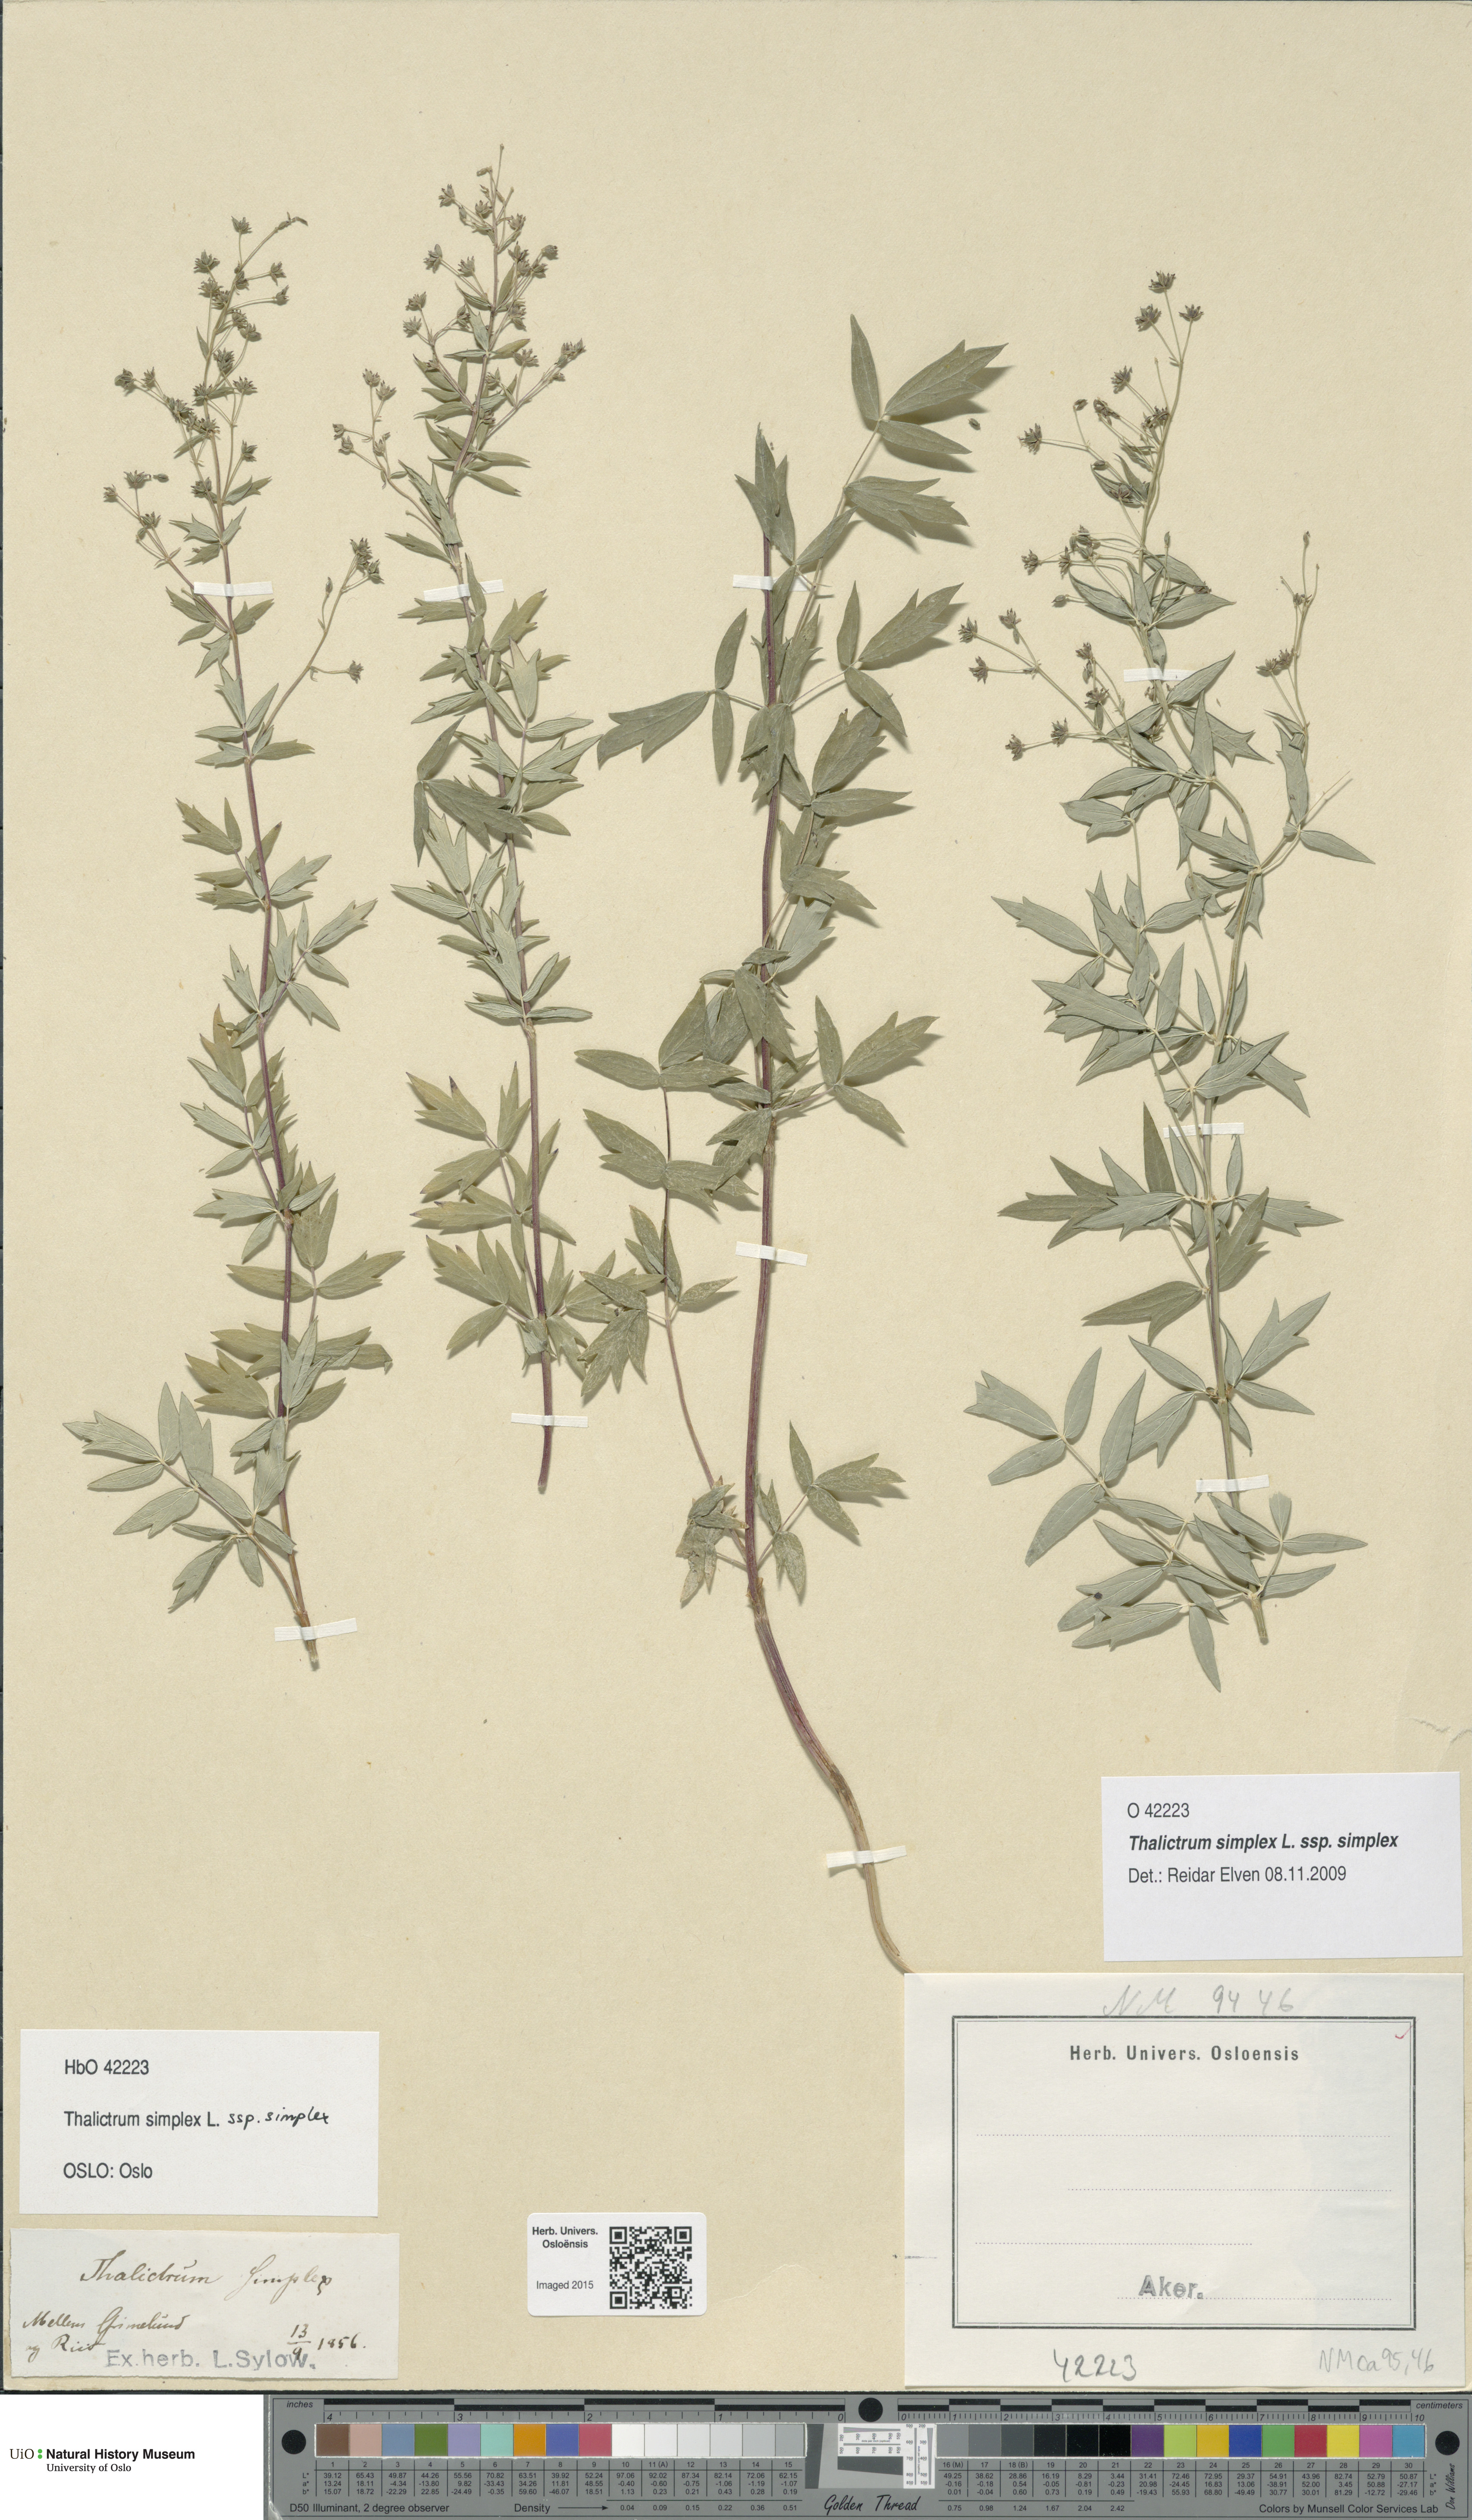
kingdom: Plantae
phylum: Tracheophyta
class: Magnoliopsida
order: Ranunculales
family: Ranunculaceae
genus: Thalictrum
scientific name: Thalictrum simplex
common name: Small meadow-rue
